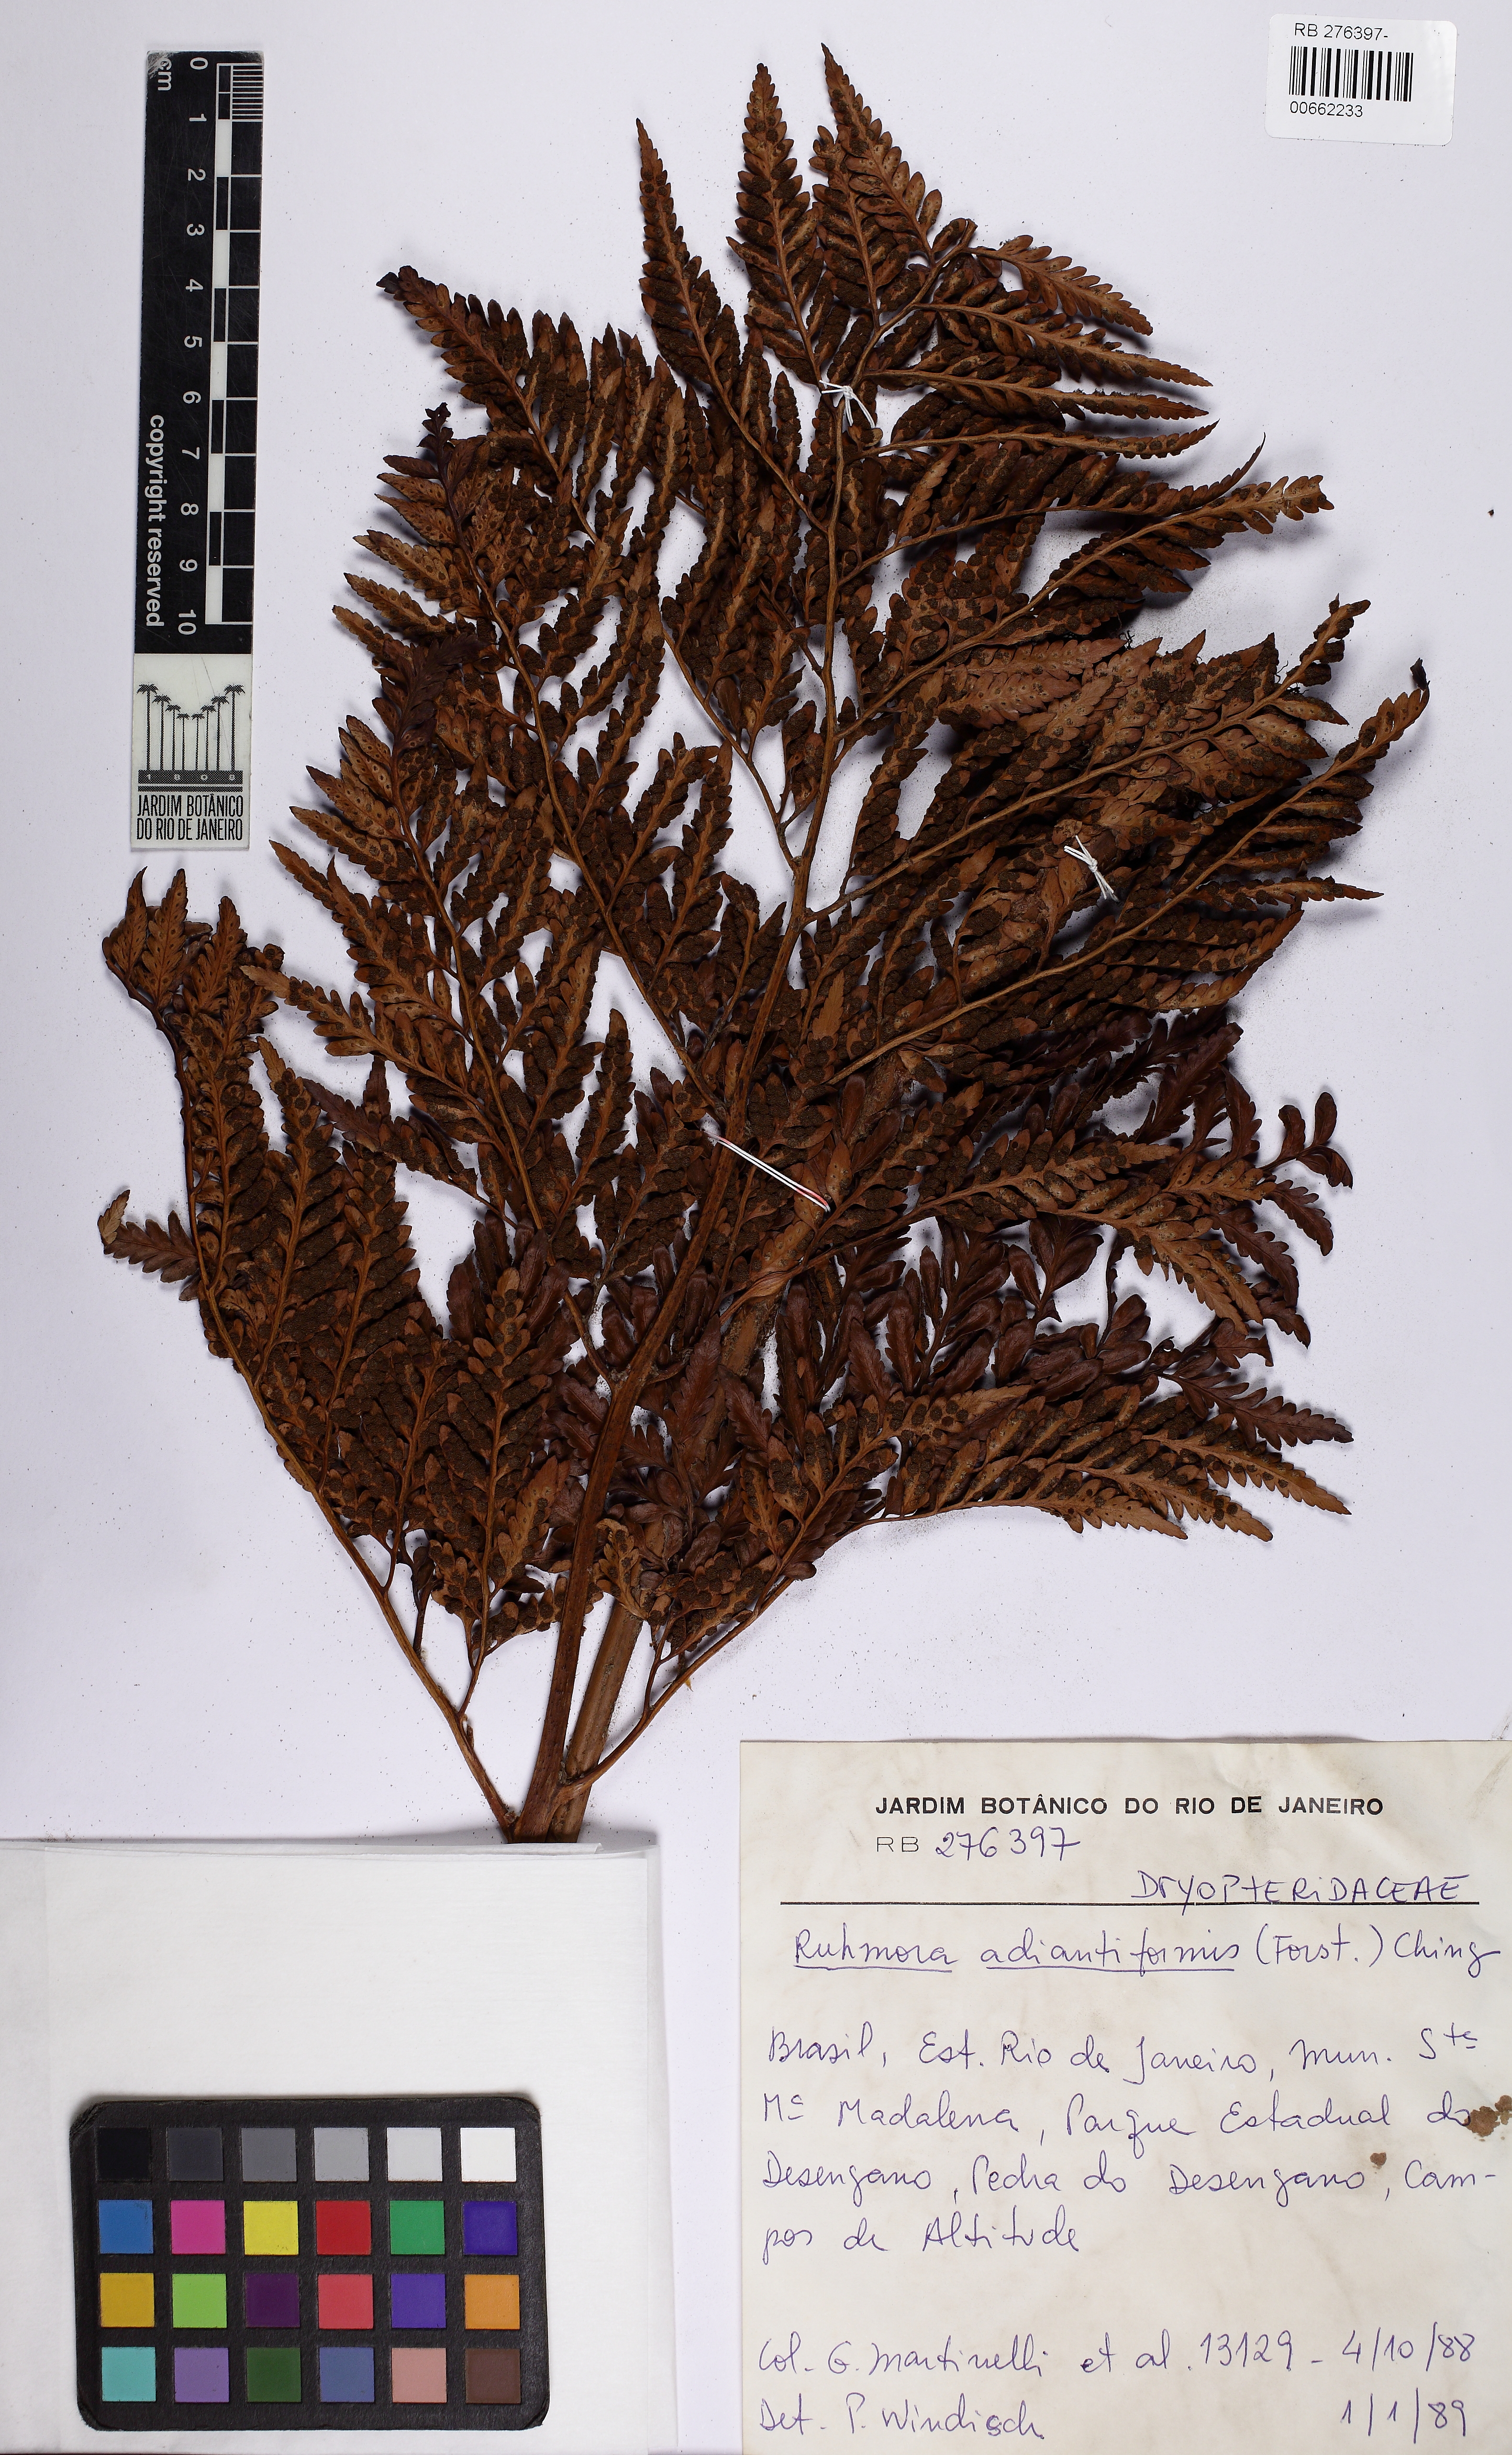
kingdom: Plantae
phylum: Tracheophyta
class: Polypodiopsida
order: Polypodiales
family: Dryopteridaceae
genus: Rumohra
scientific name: Rumohra adiantiformis
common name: Leather fern
